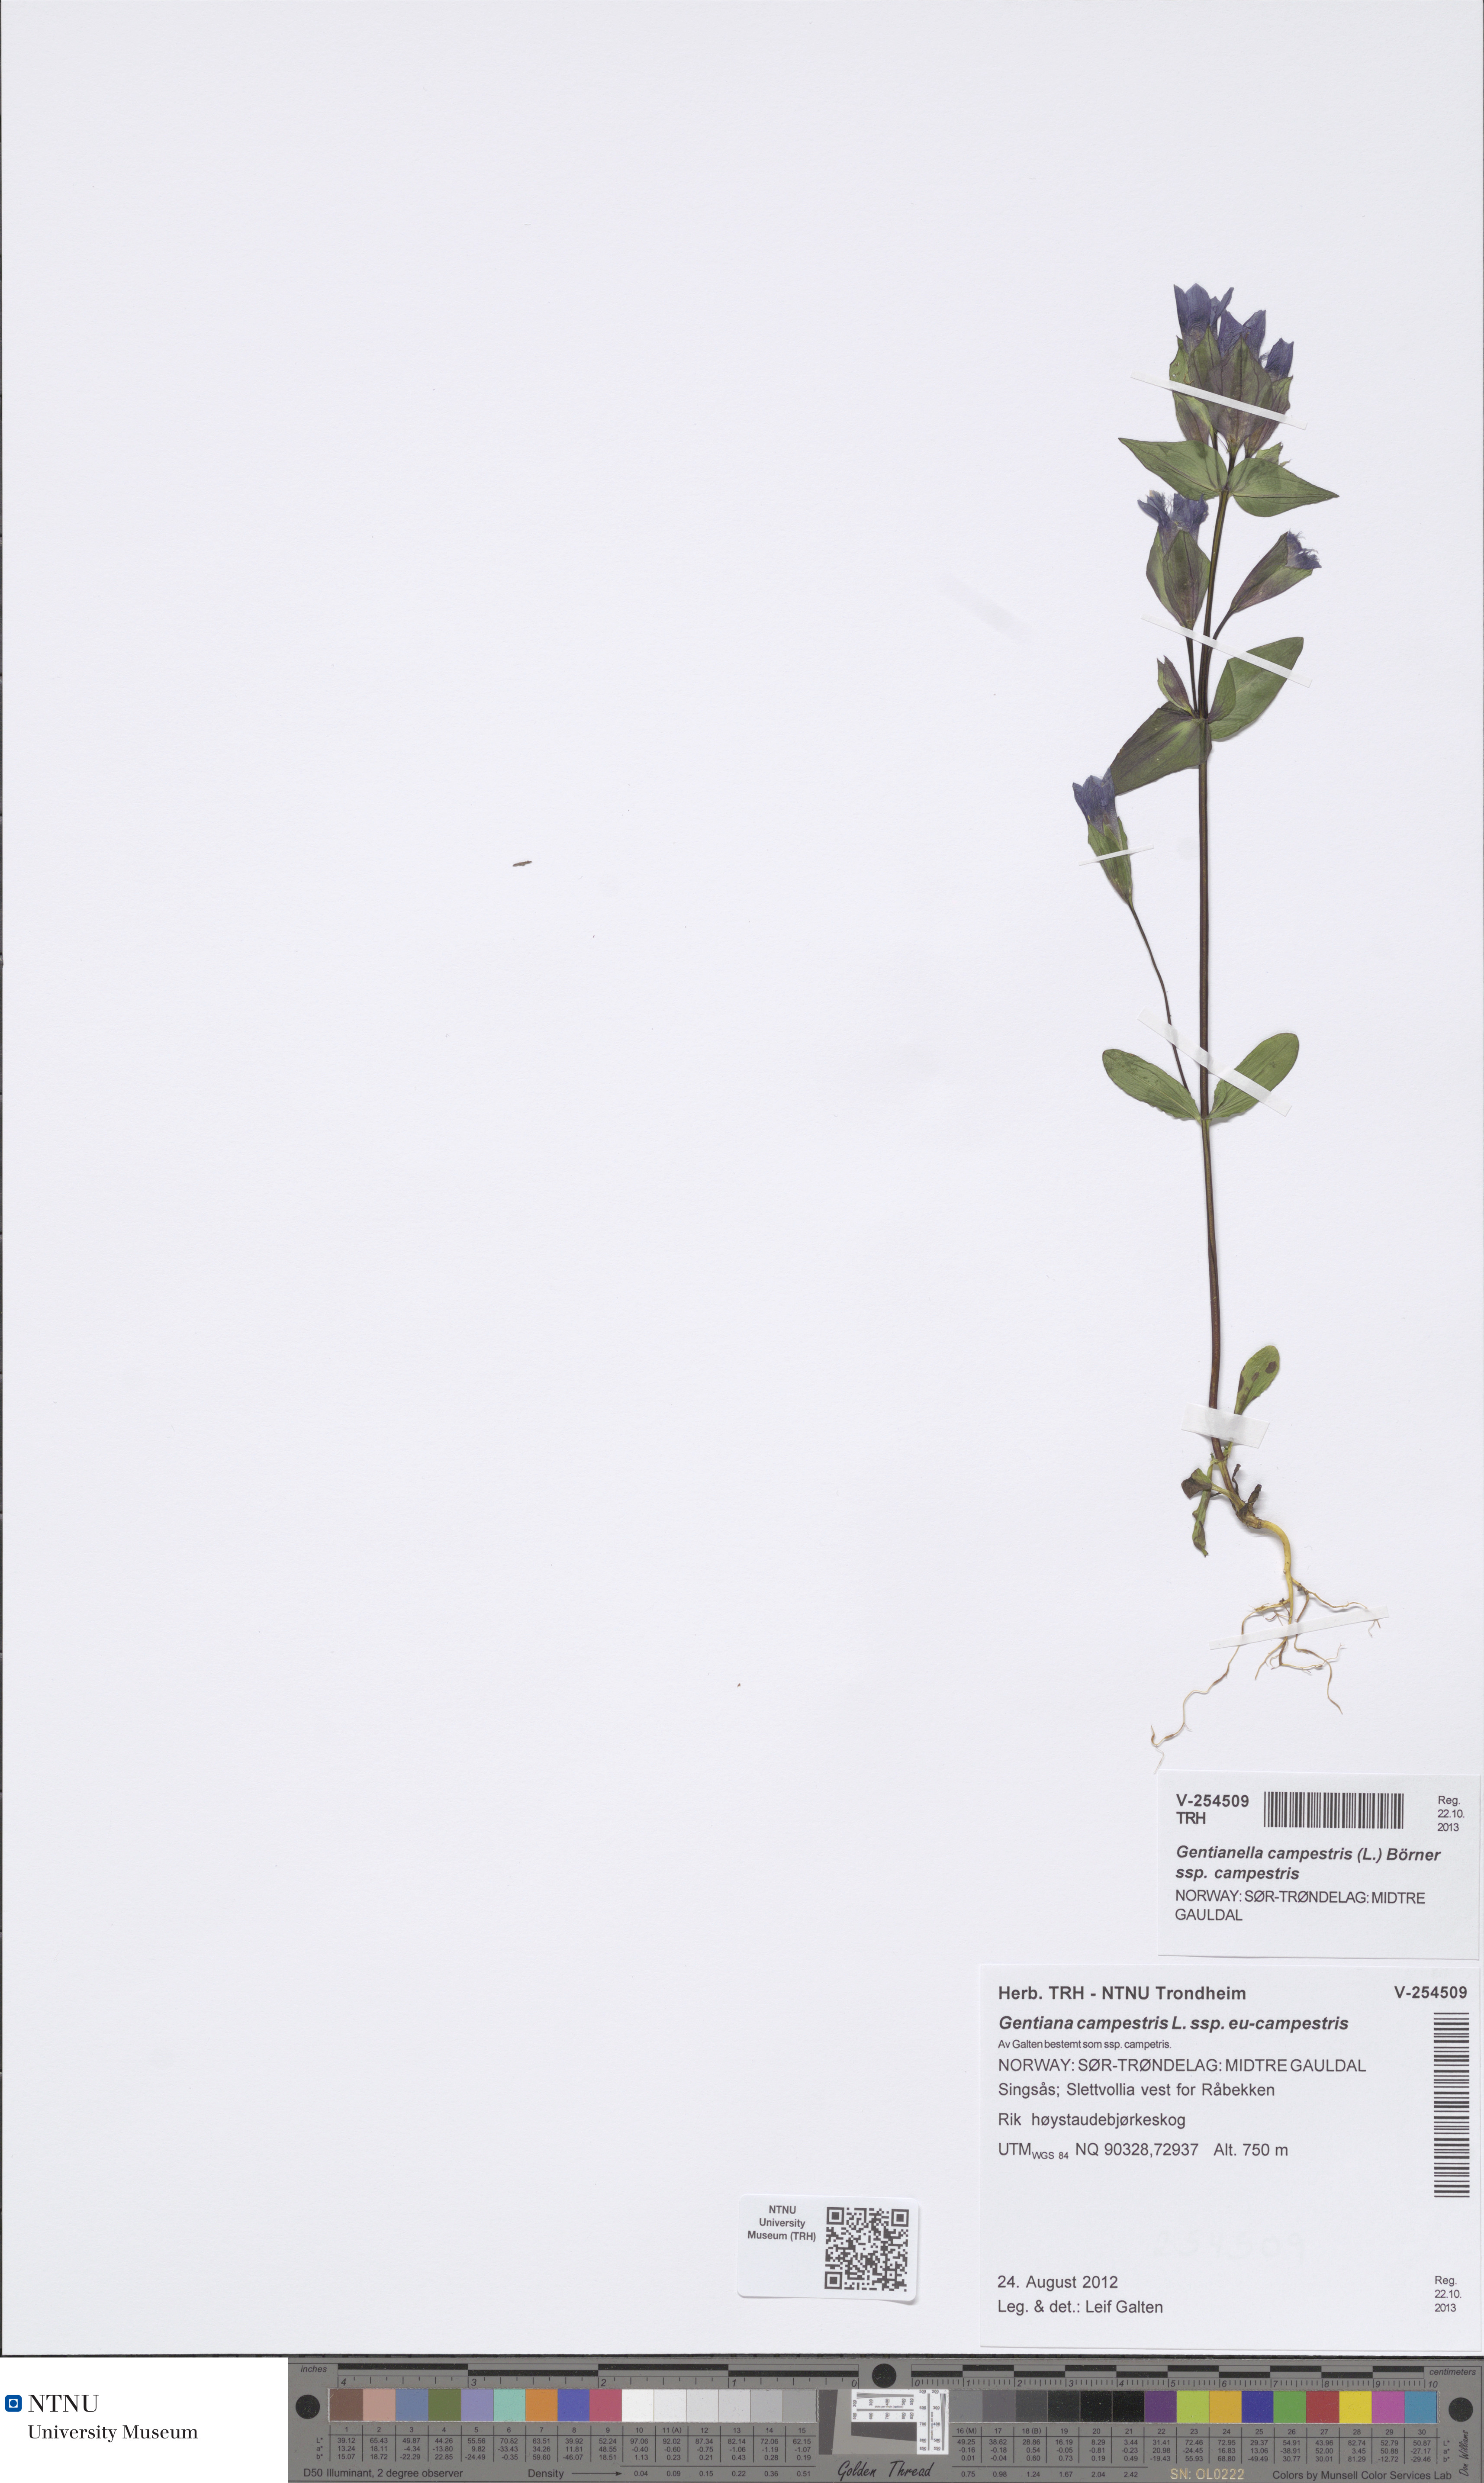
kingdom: Plantae
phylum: Tracheophyta
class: Magnoliopsida
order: Gentianales
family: Gentianaceae
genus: Gentianella
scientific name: Gentianella campestris
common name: Field gentian
